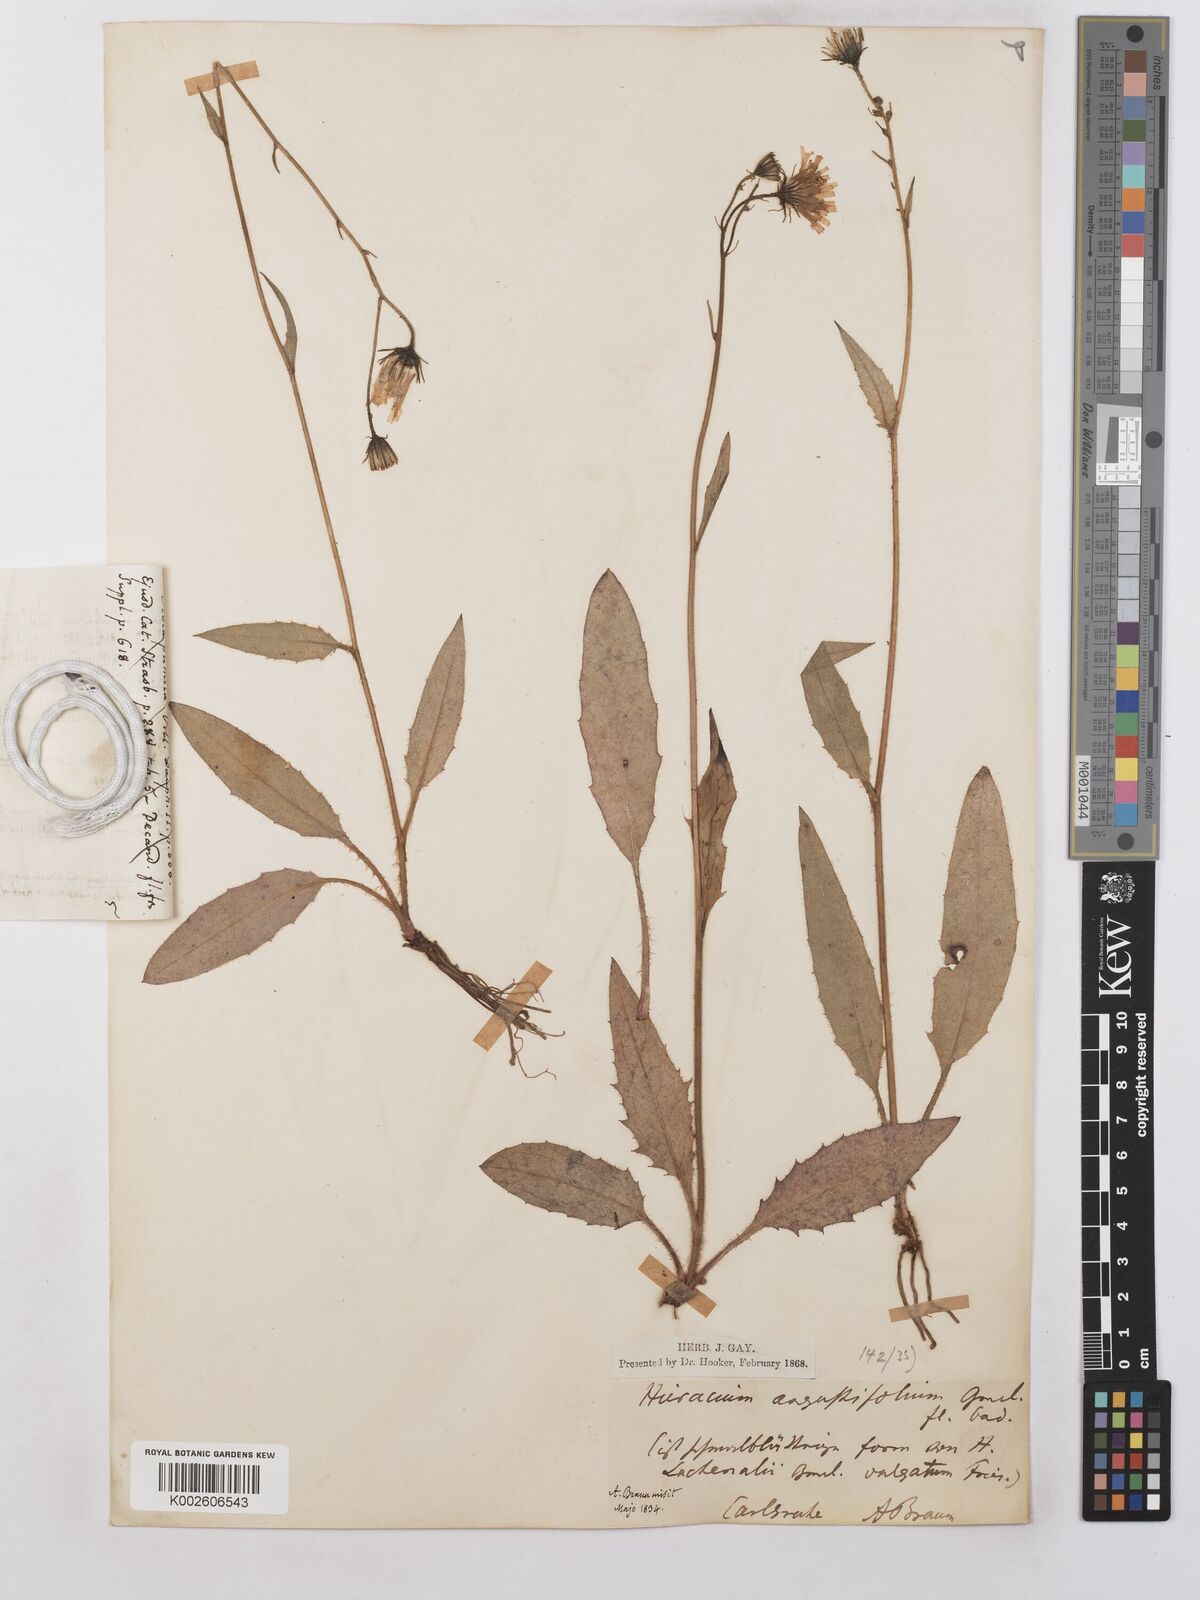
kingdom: Plantae
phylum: Tracheophyta
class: Magnoliopsida
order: Asterales
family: Asteraceae
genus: Hieracium
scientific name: Hieracium lachenalii
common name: Common hawkweed
